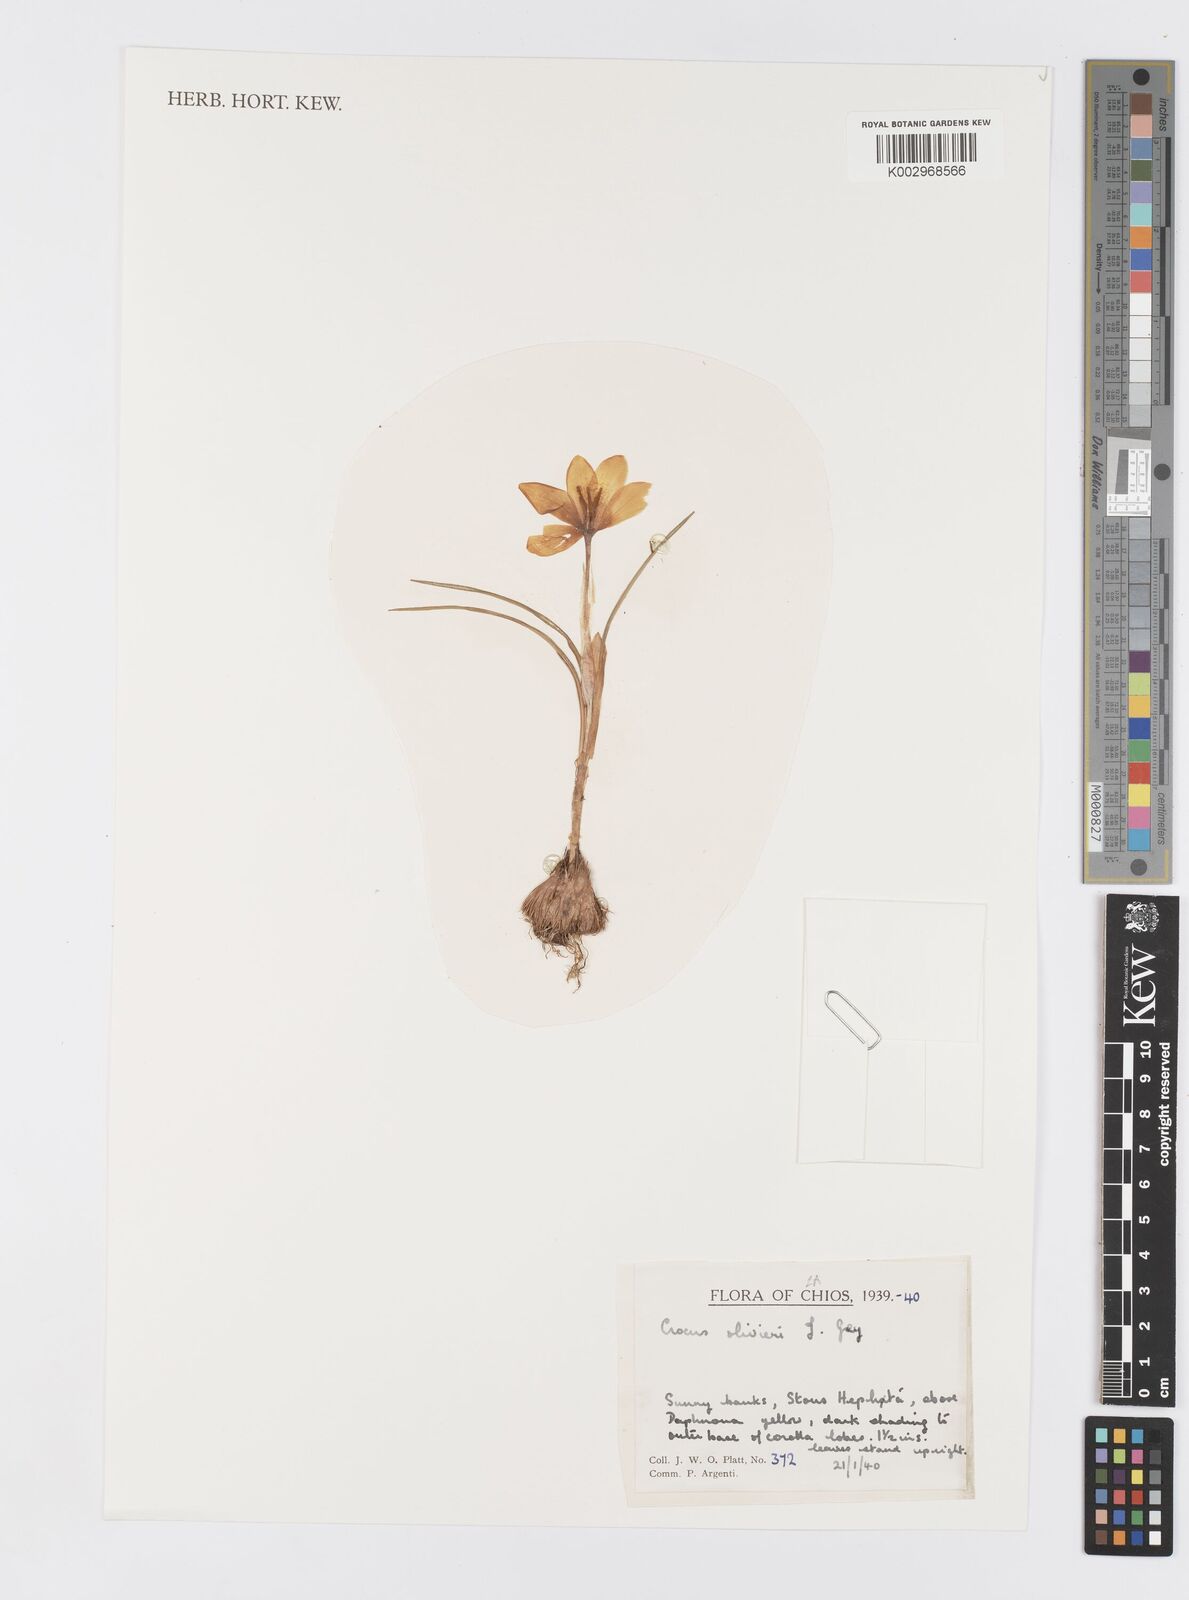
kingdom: Plantae
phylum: Tracheophyta
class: Liliopsida
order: Asparagales
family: Iridaceae
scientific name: Iridaceae
